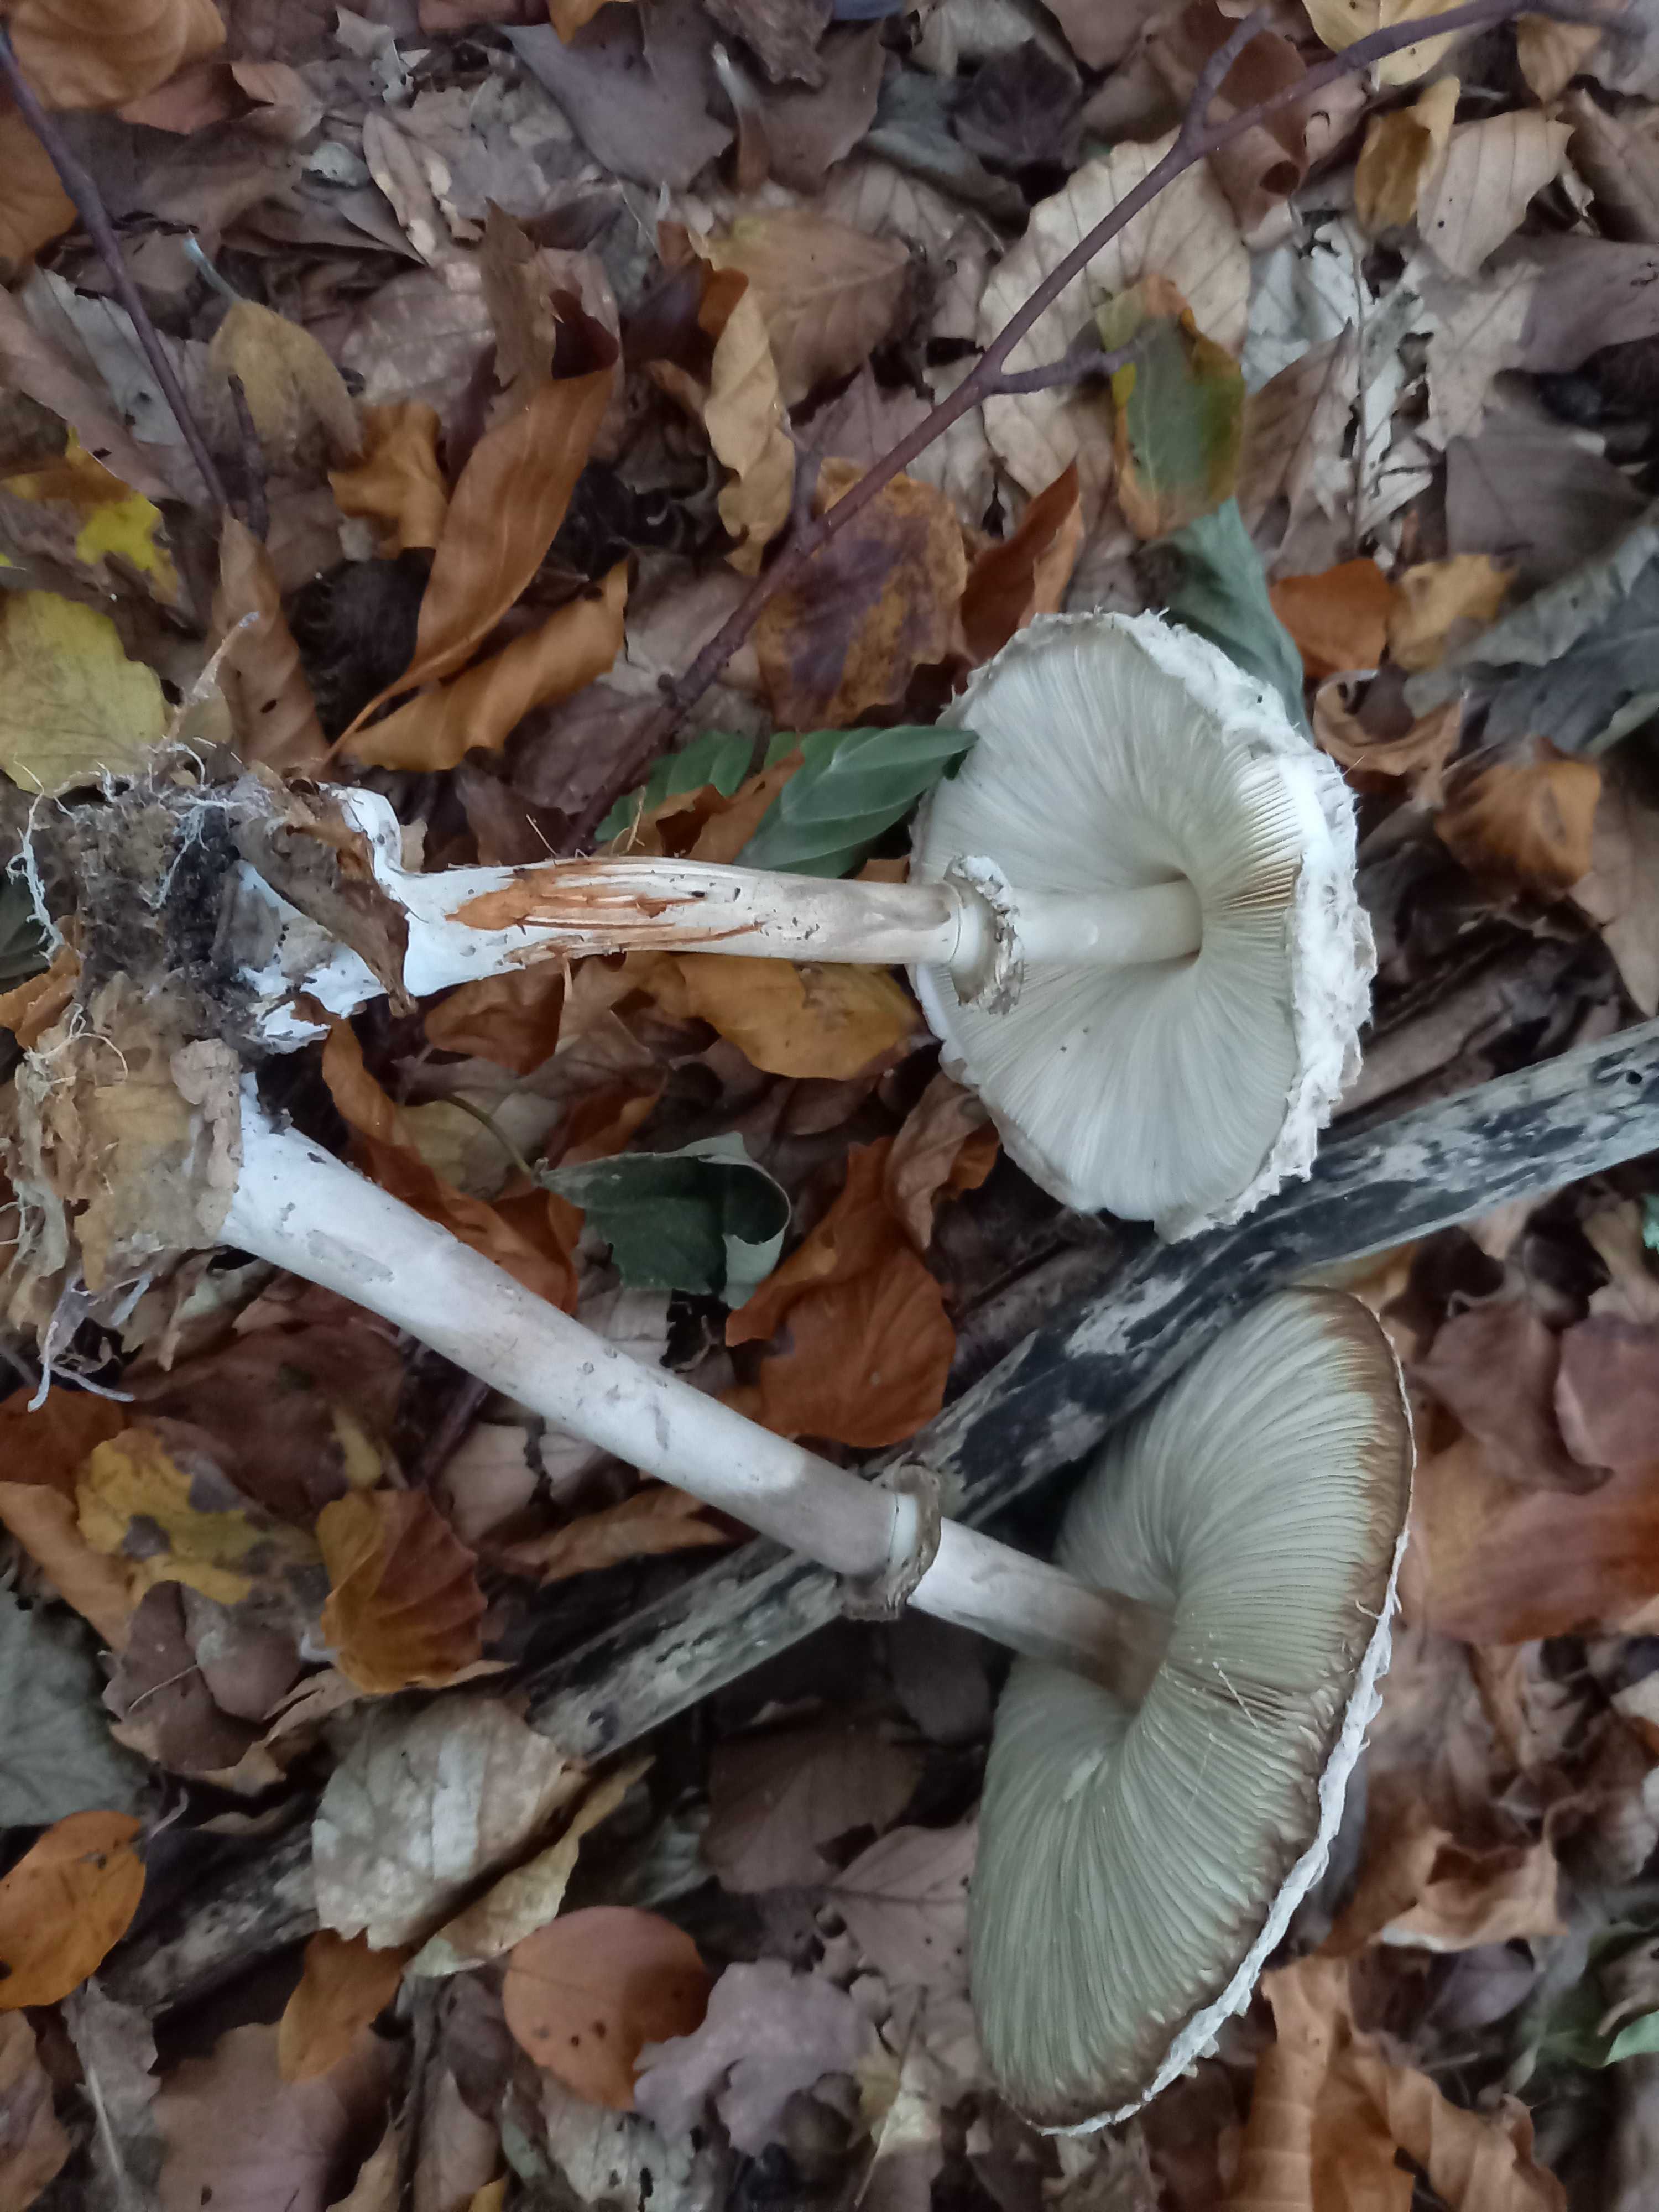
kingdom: Fungi
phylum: Basidiomycota
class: Agaricomycetes
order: Agaricales
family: Agaricaceae
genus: Chlorophyllum
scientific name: Chlorophyllum olivieri
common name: almindelig rabarberhat
